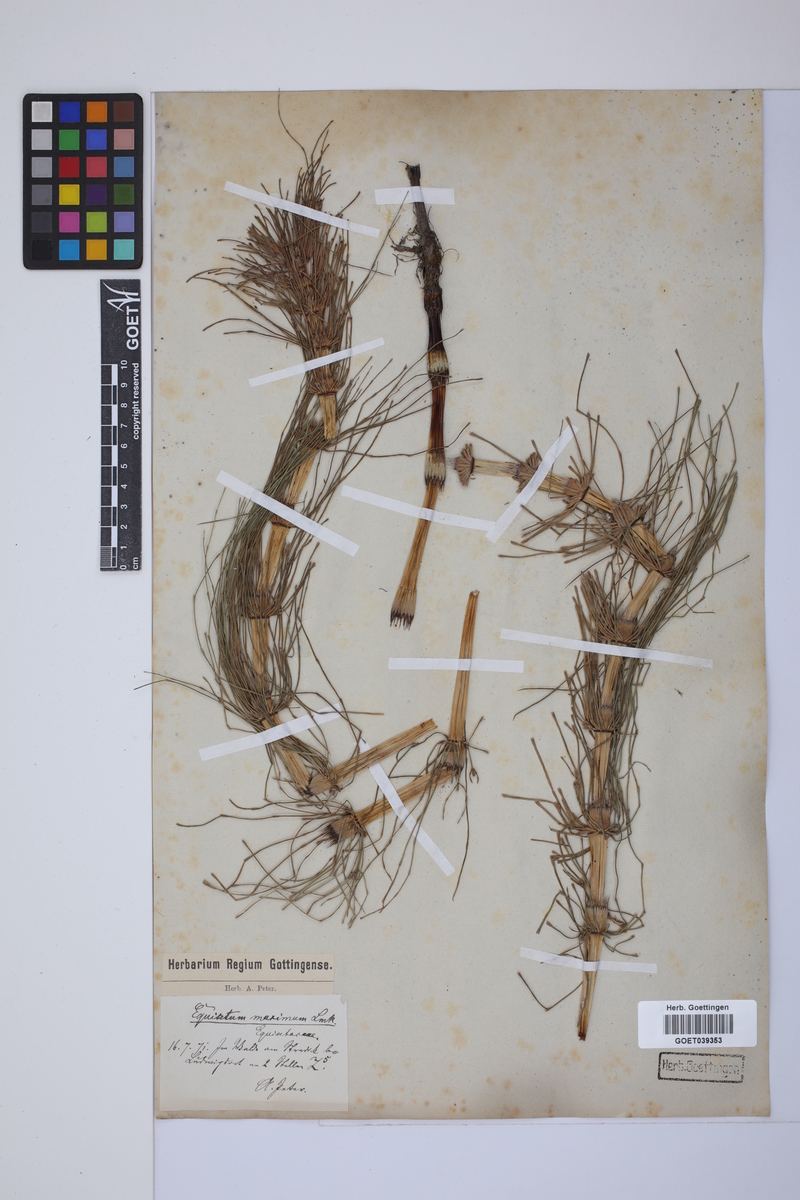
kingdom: Plantae
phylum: Tracheophyta
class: Polypodiopsida
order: Equisetales
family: Equisetaceae
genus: Equisetum
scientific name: Equisetum telmateia
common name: Great horsetail
